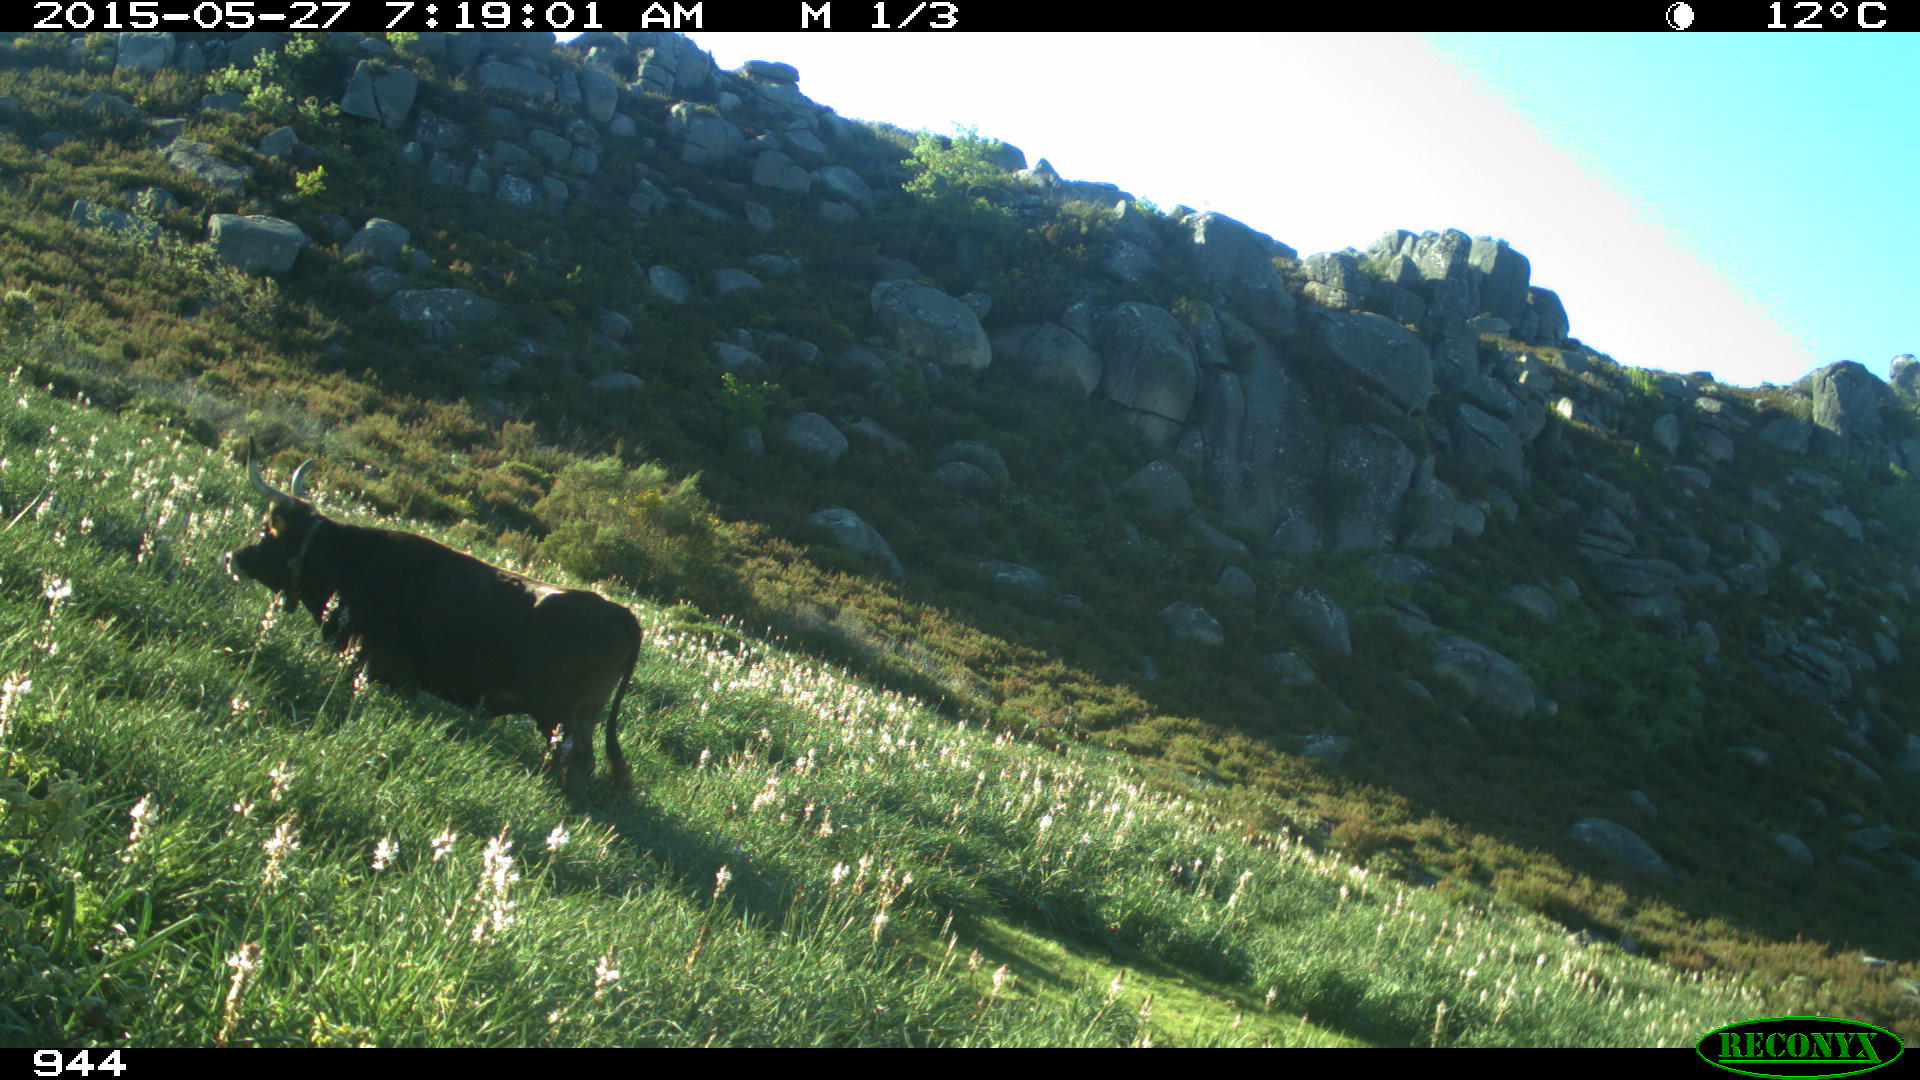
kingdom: Animalia
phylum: Chordata
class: Mammalia
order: Artiodactyla
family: Bovidae
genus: Bos
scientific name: Bos taurus
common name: Domesticated cattle
